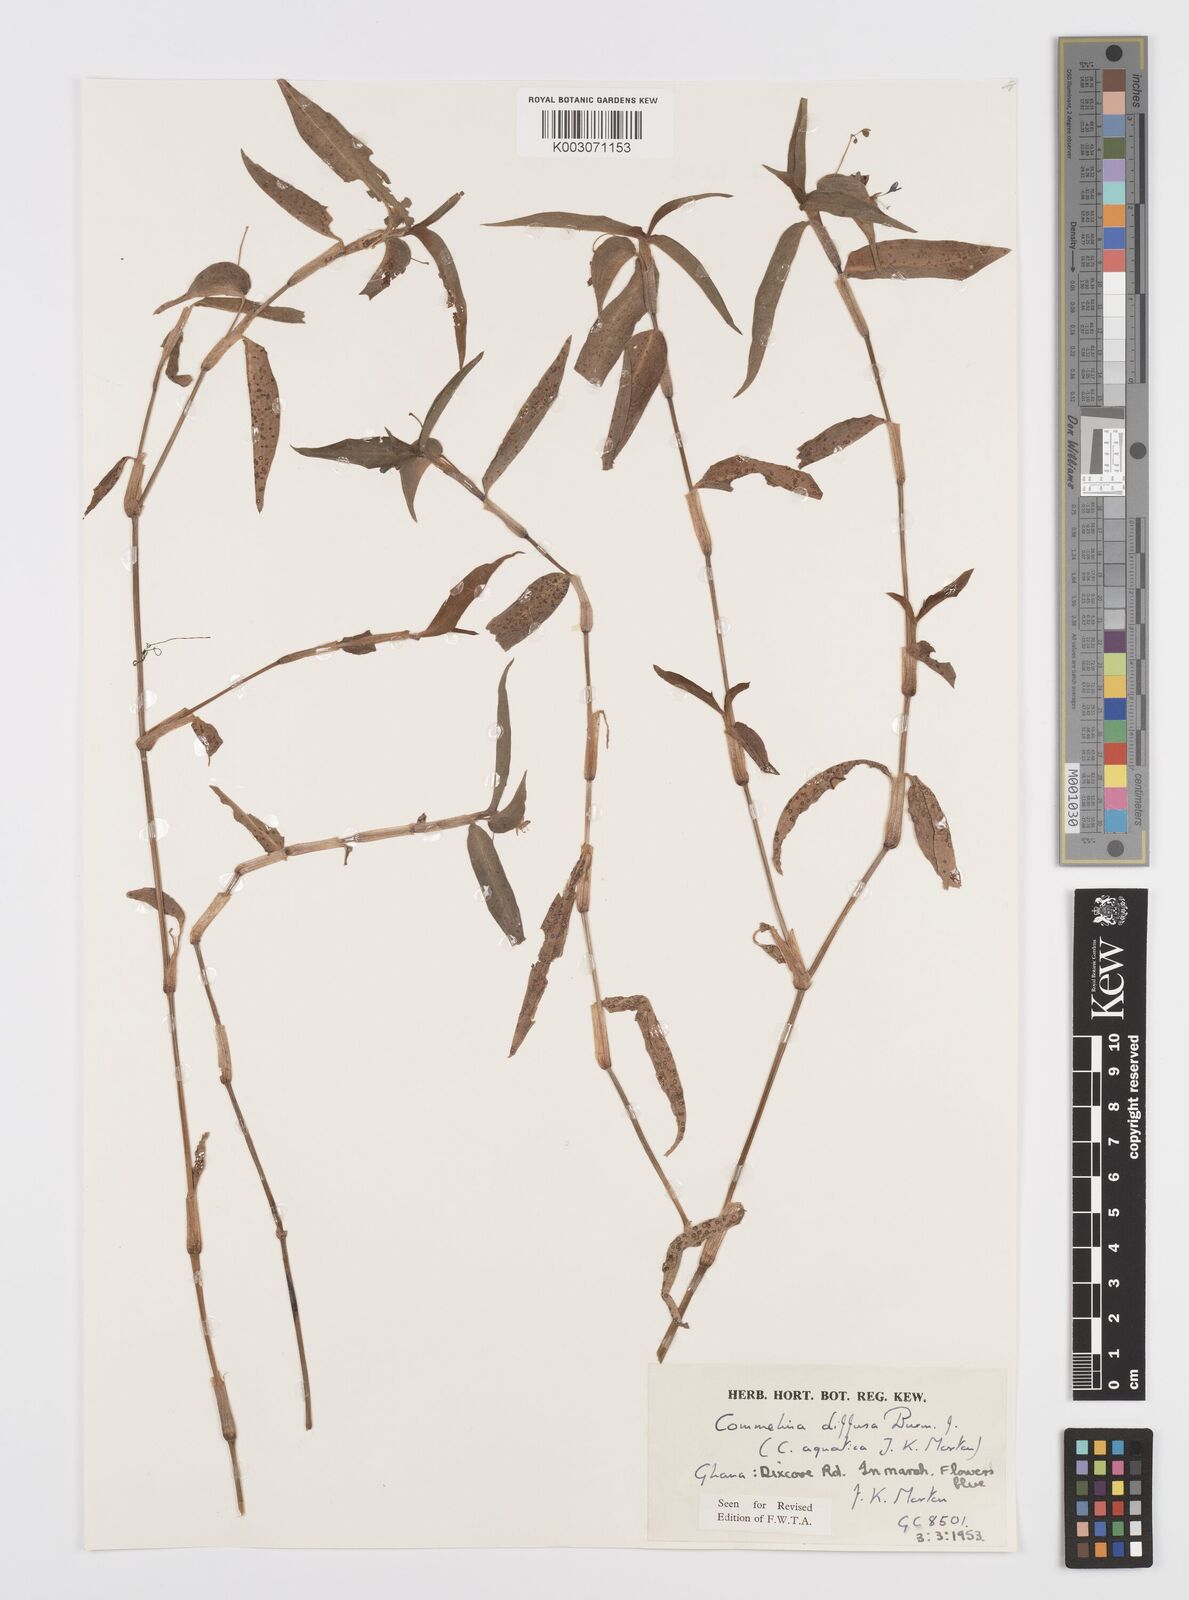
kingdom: Plantae
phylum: Tracheophyta
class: Liliopsida
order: Commelinales
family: Commelinaceae
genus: Commelina
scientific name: Commelina diffusa
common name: Climbing dayflower
